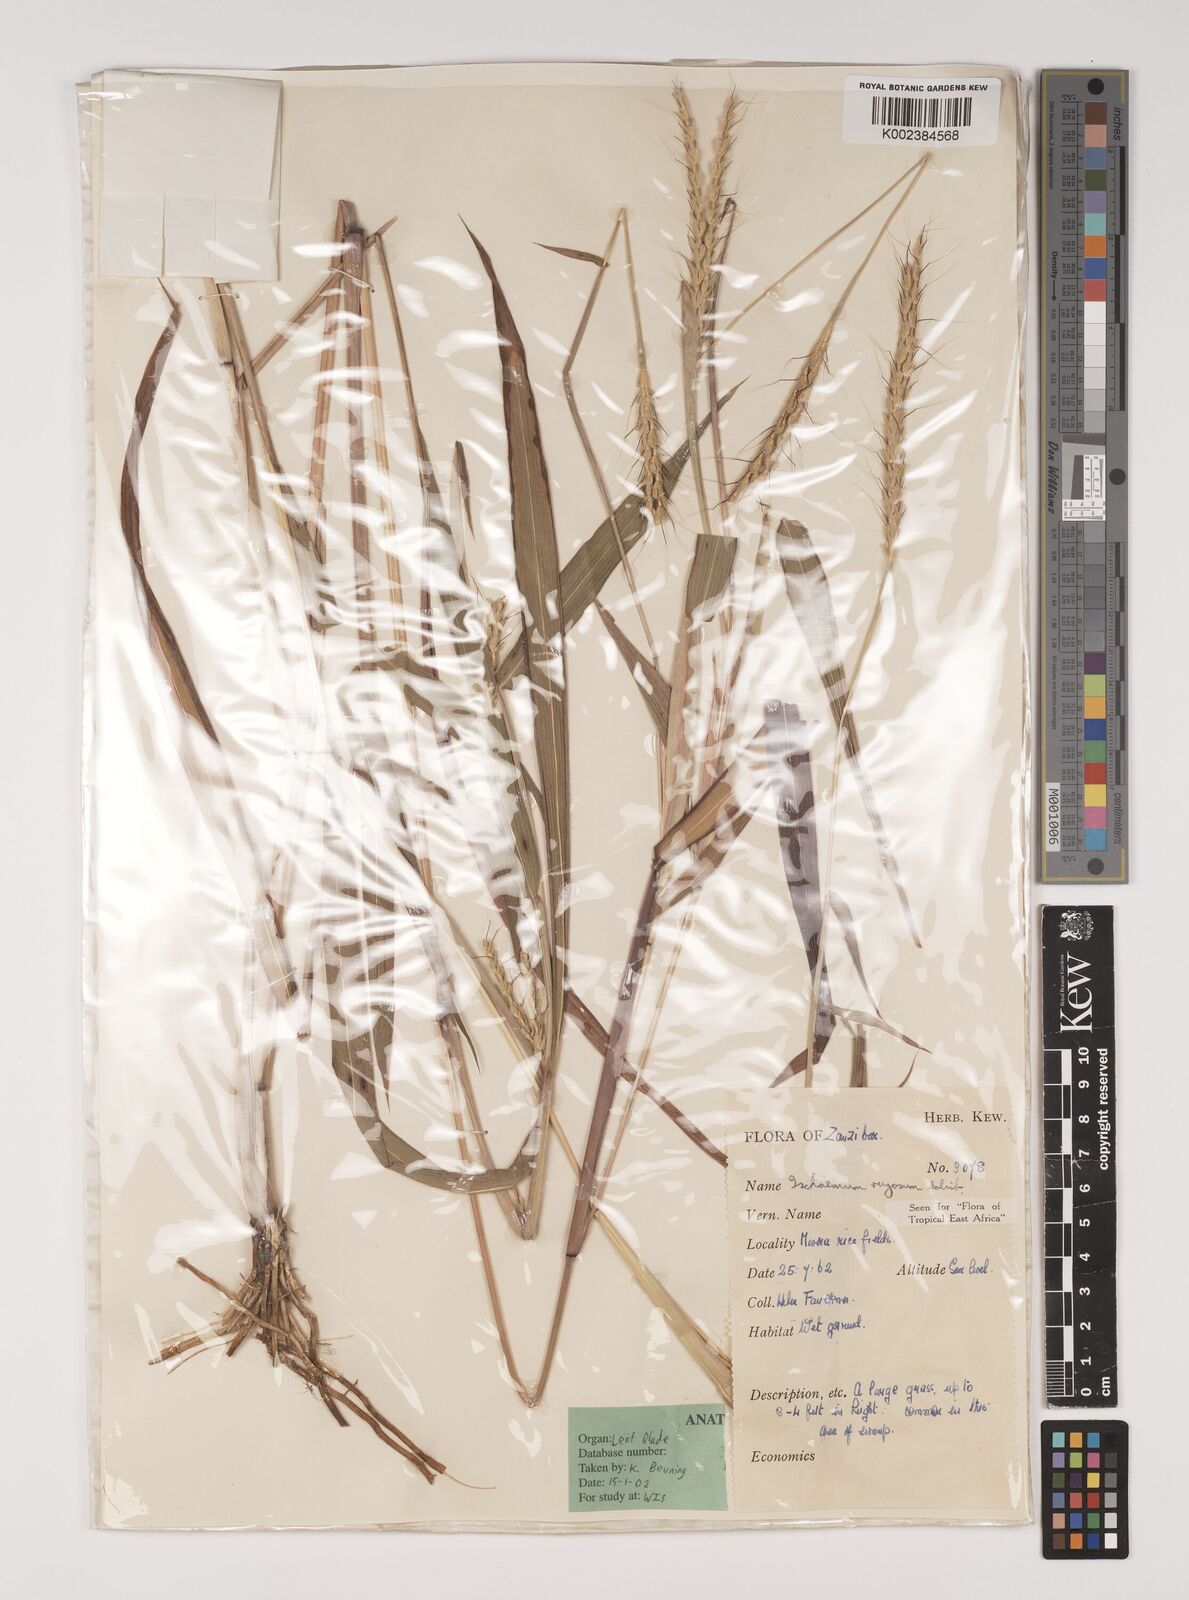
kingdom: Plantae
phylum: Tracheophyta
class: Liliopsida
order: Poales
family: Poaceae
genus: Ischaemum
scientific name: Ischaemum rugosum
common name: Saramatta grass
